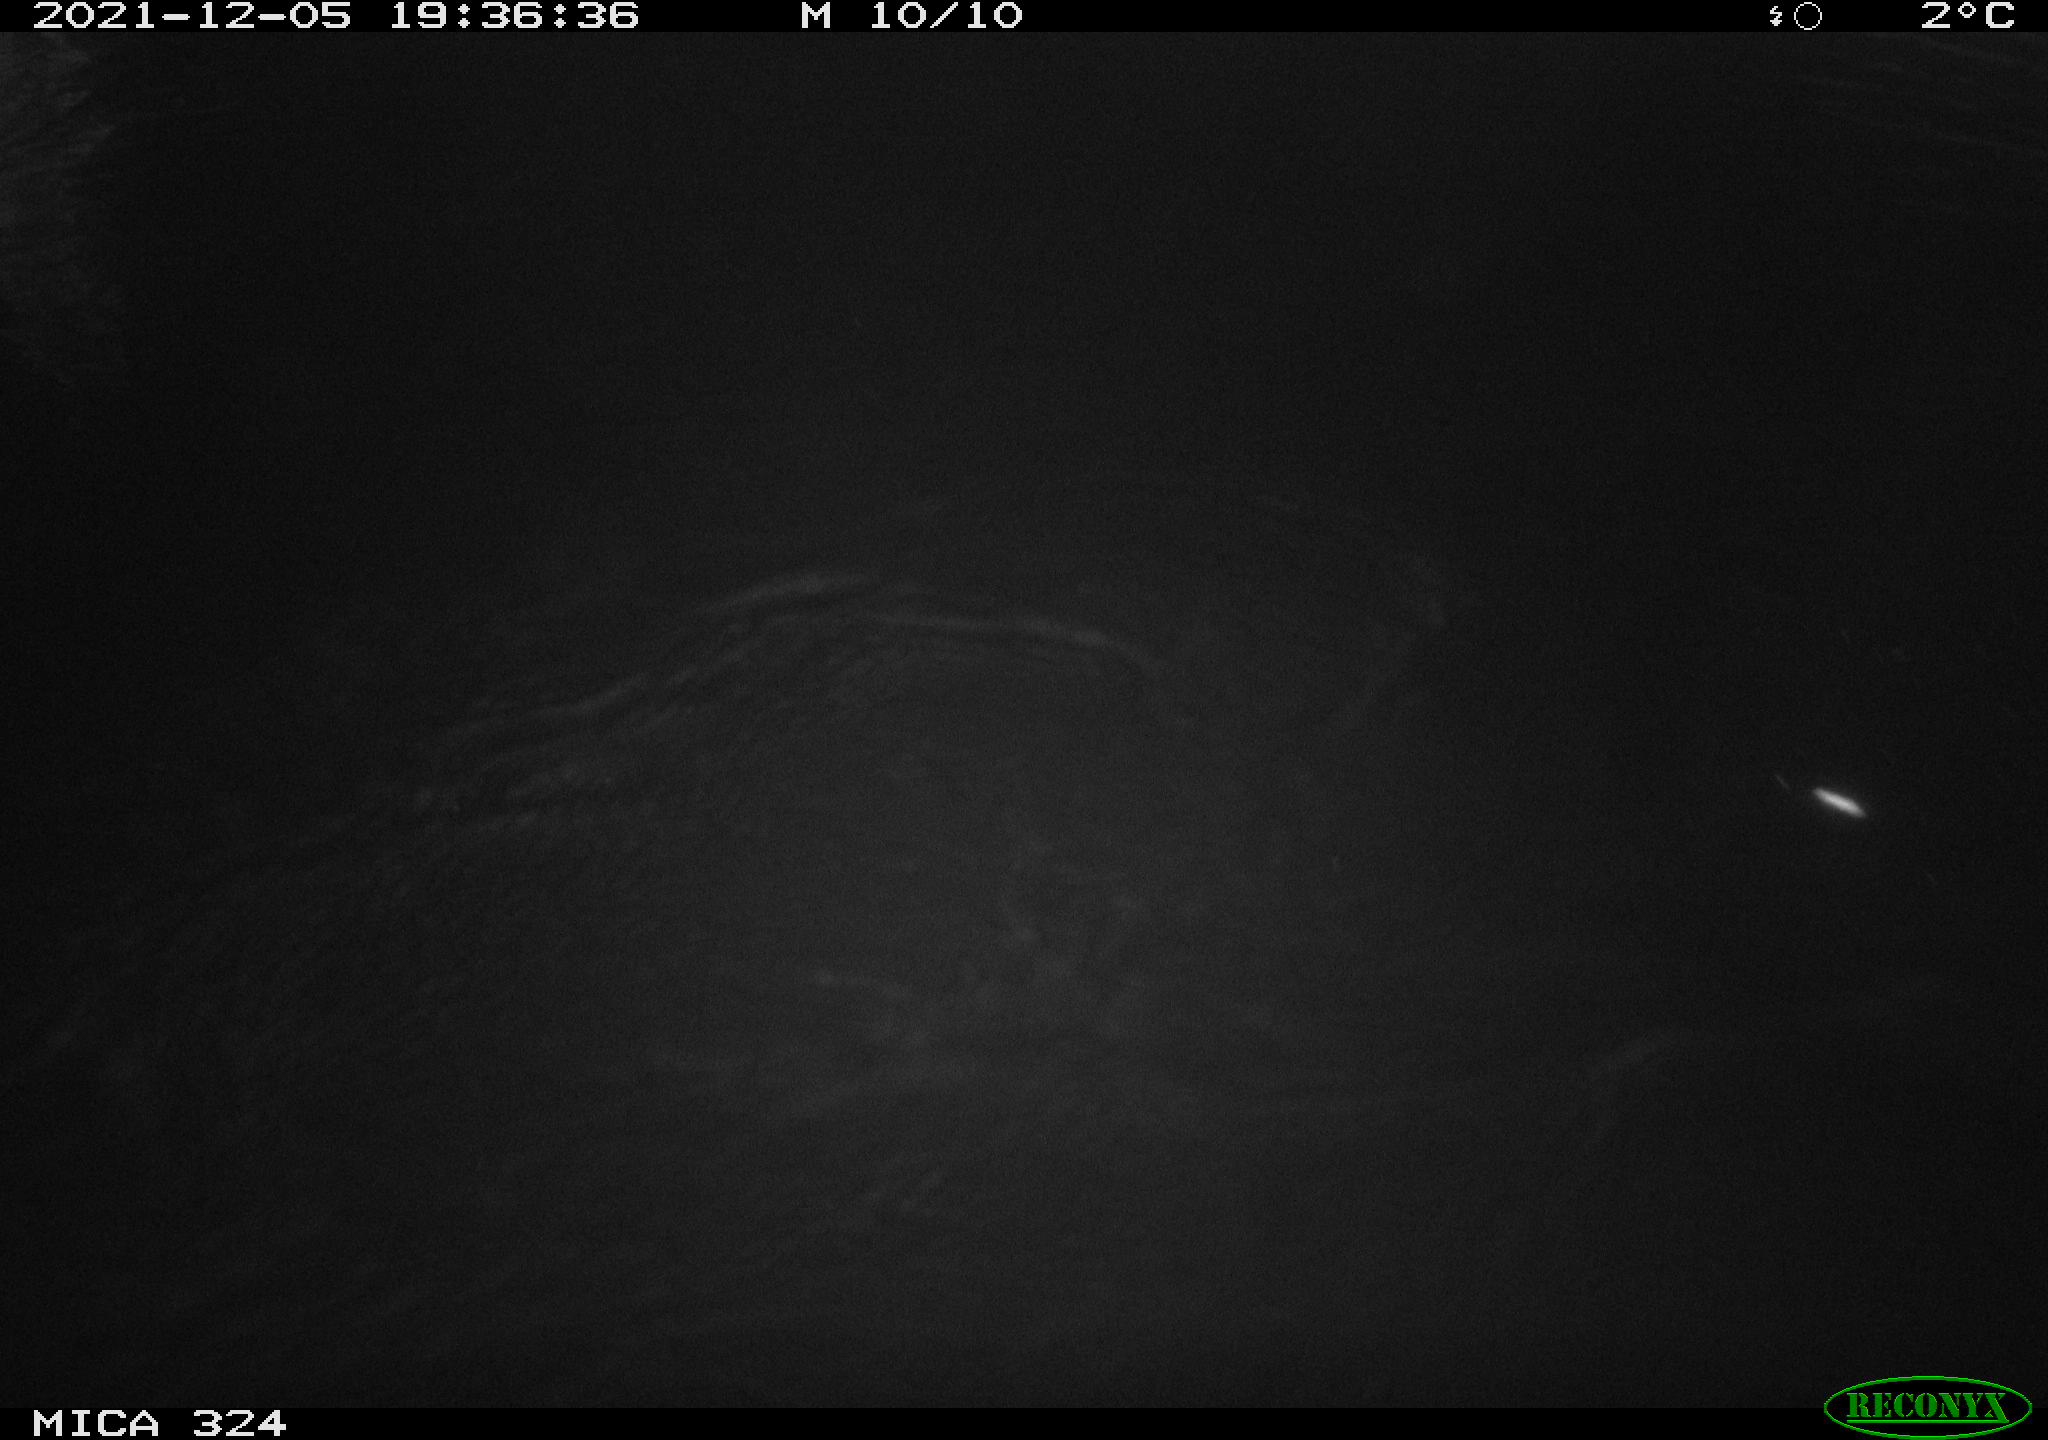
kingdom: Animalia
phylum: Chordata
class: Mammalia
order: Rodentia
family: Cricetidae
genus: Ondatra
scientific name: Ondatra zibethicus
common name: Muskrat
